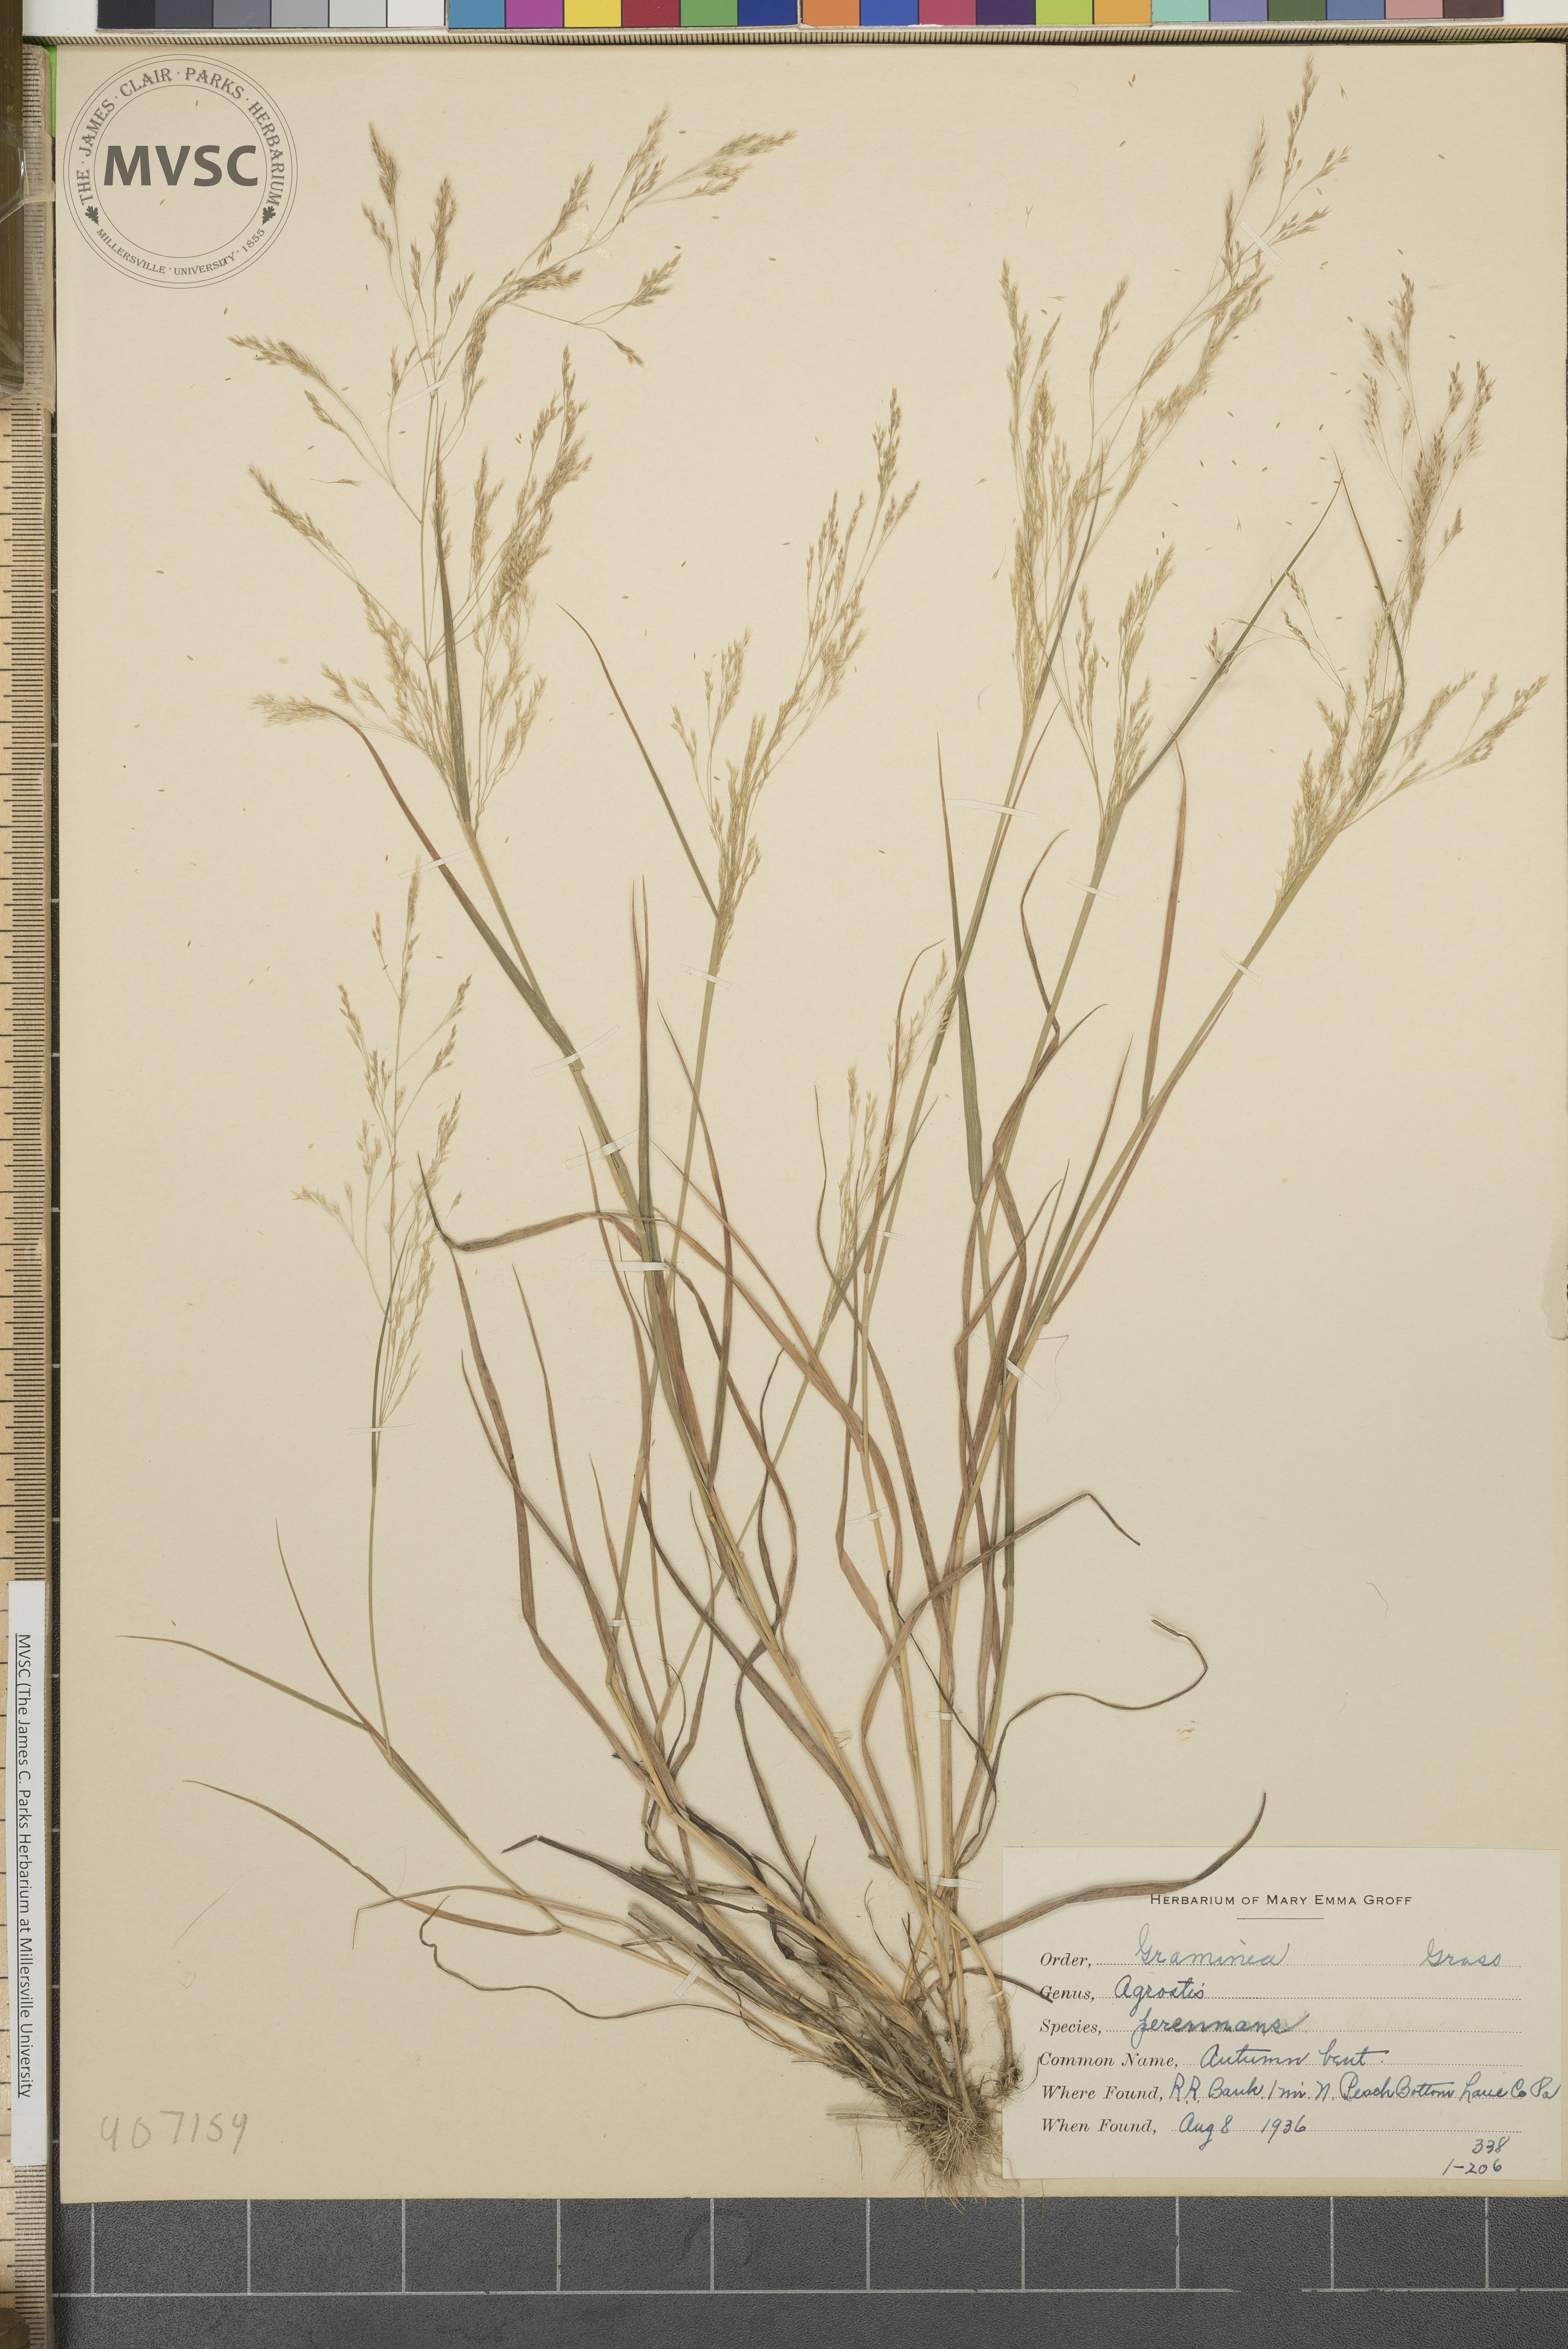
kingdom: Plantae
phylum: Tracheophyta
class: Liliopsida
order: Poales
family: Poaceae
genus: Agrostis
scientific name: Agrostis perennans
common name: Autumn bent
